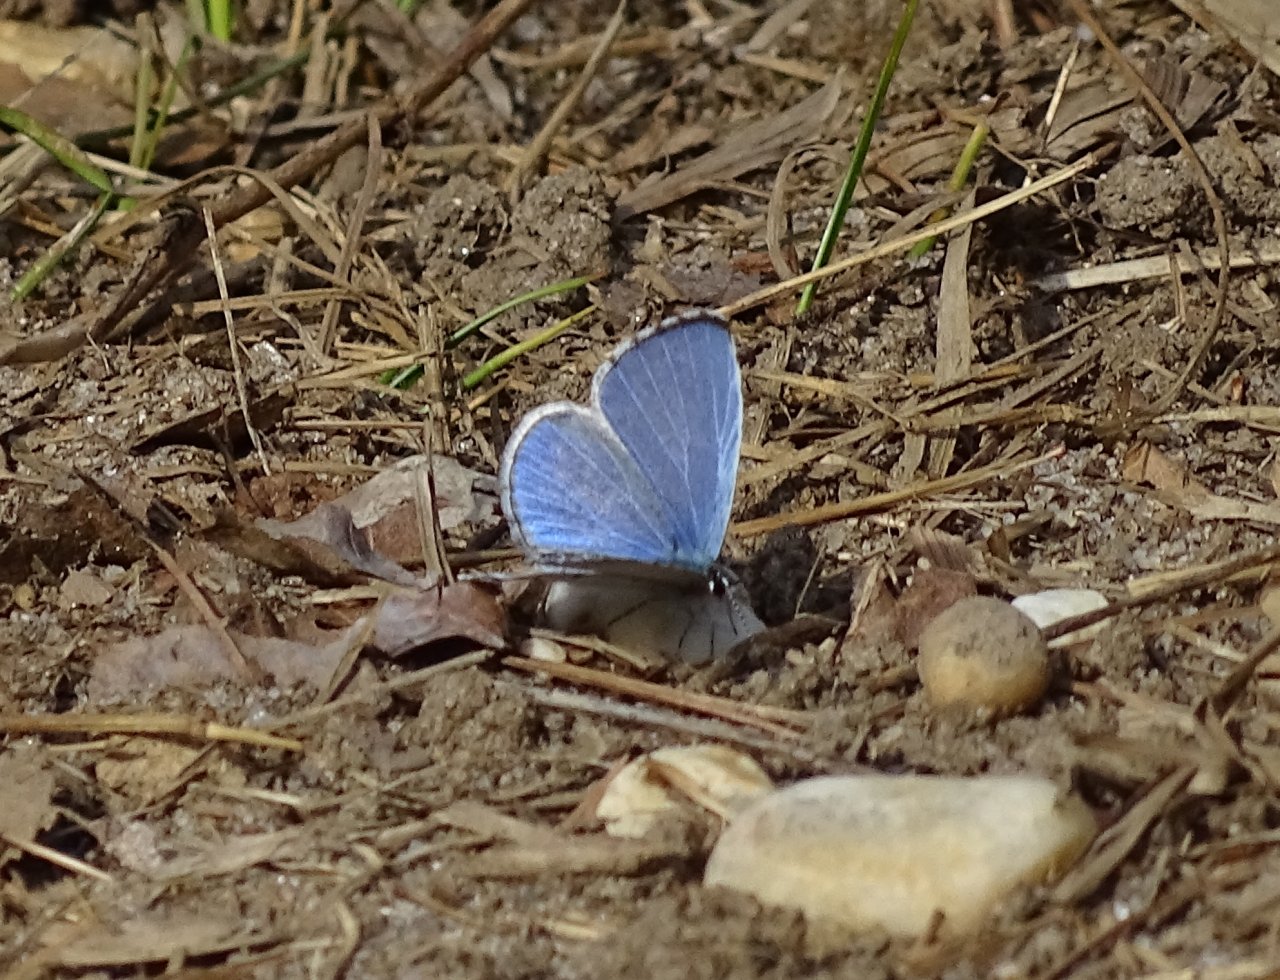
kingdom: Animalia
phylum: Arthropoda
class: Insecta
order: Lepidoptera
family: Lycaenidae
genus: Celastrina
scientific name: Celastrina ladon
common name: Spring Azure
